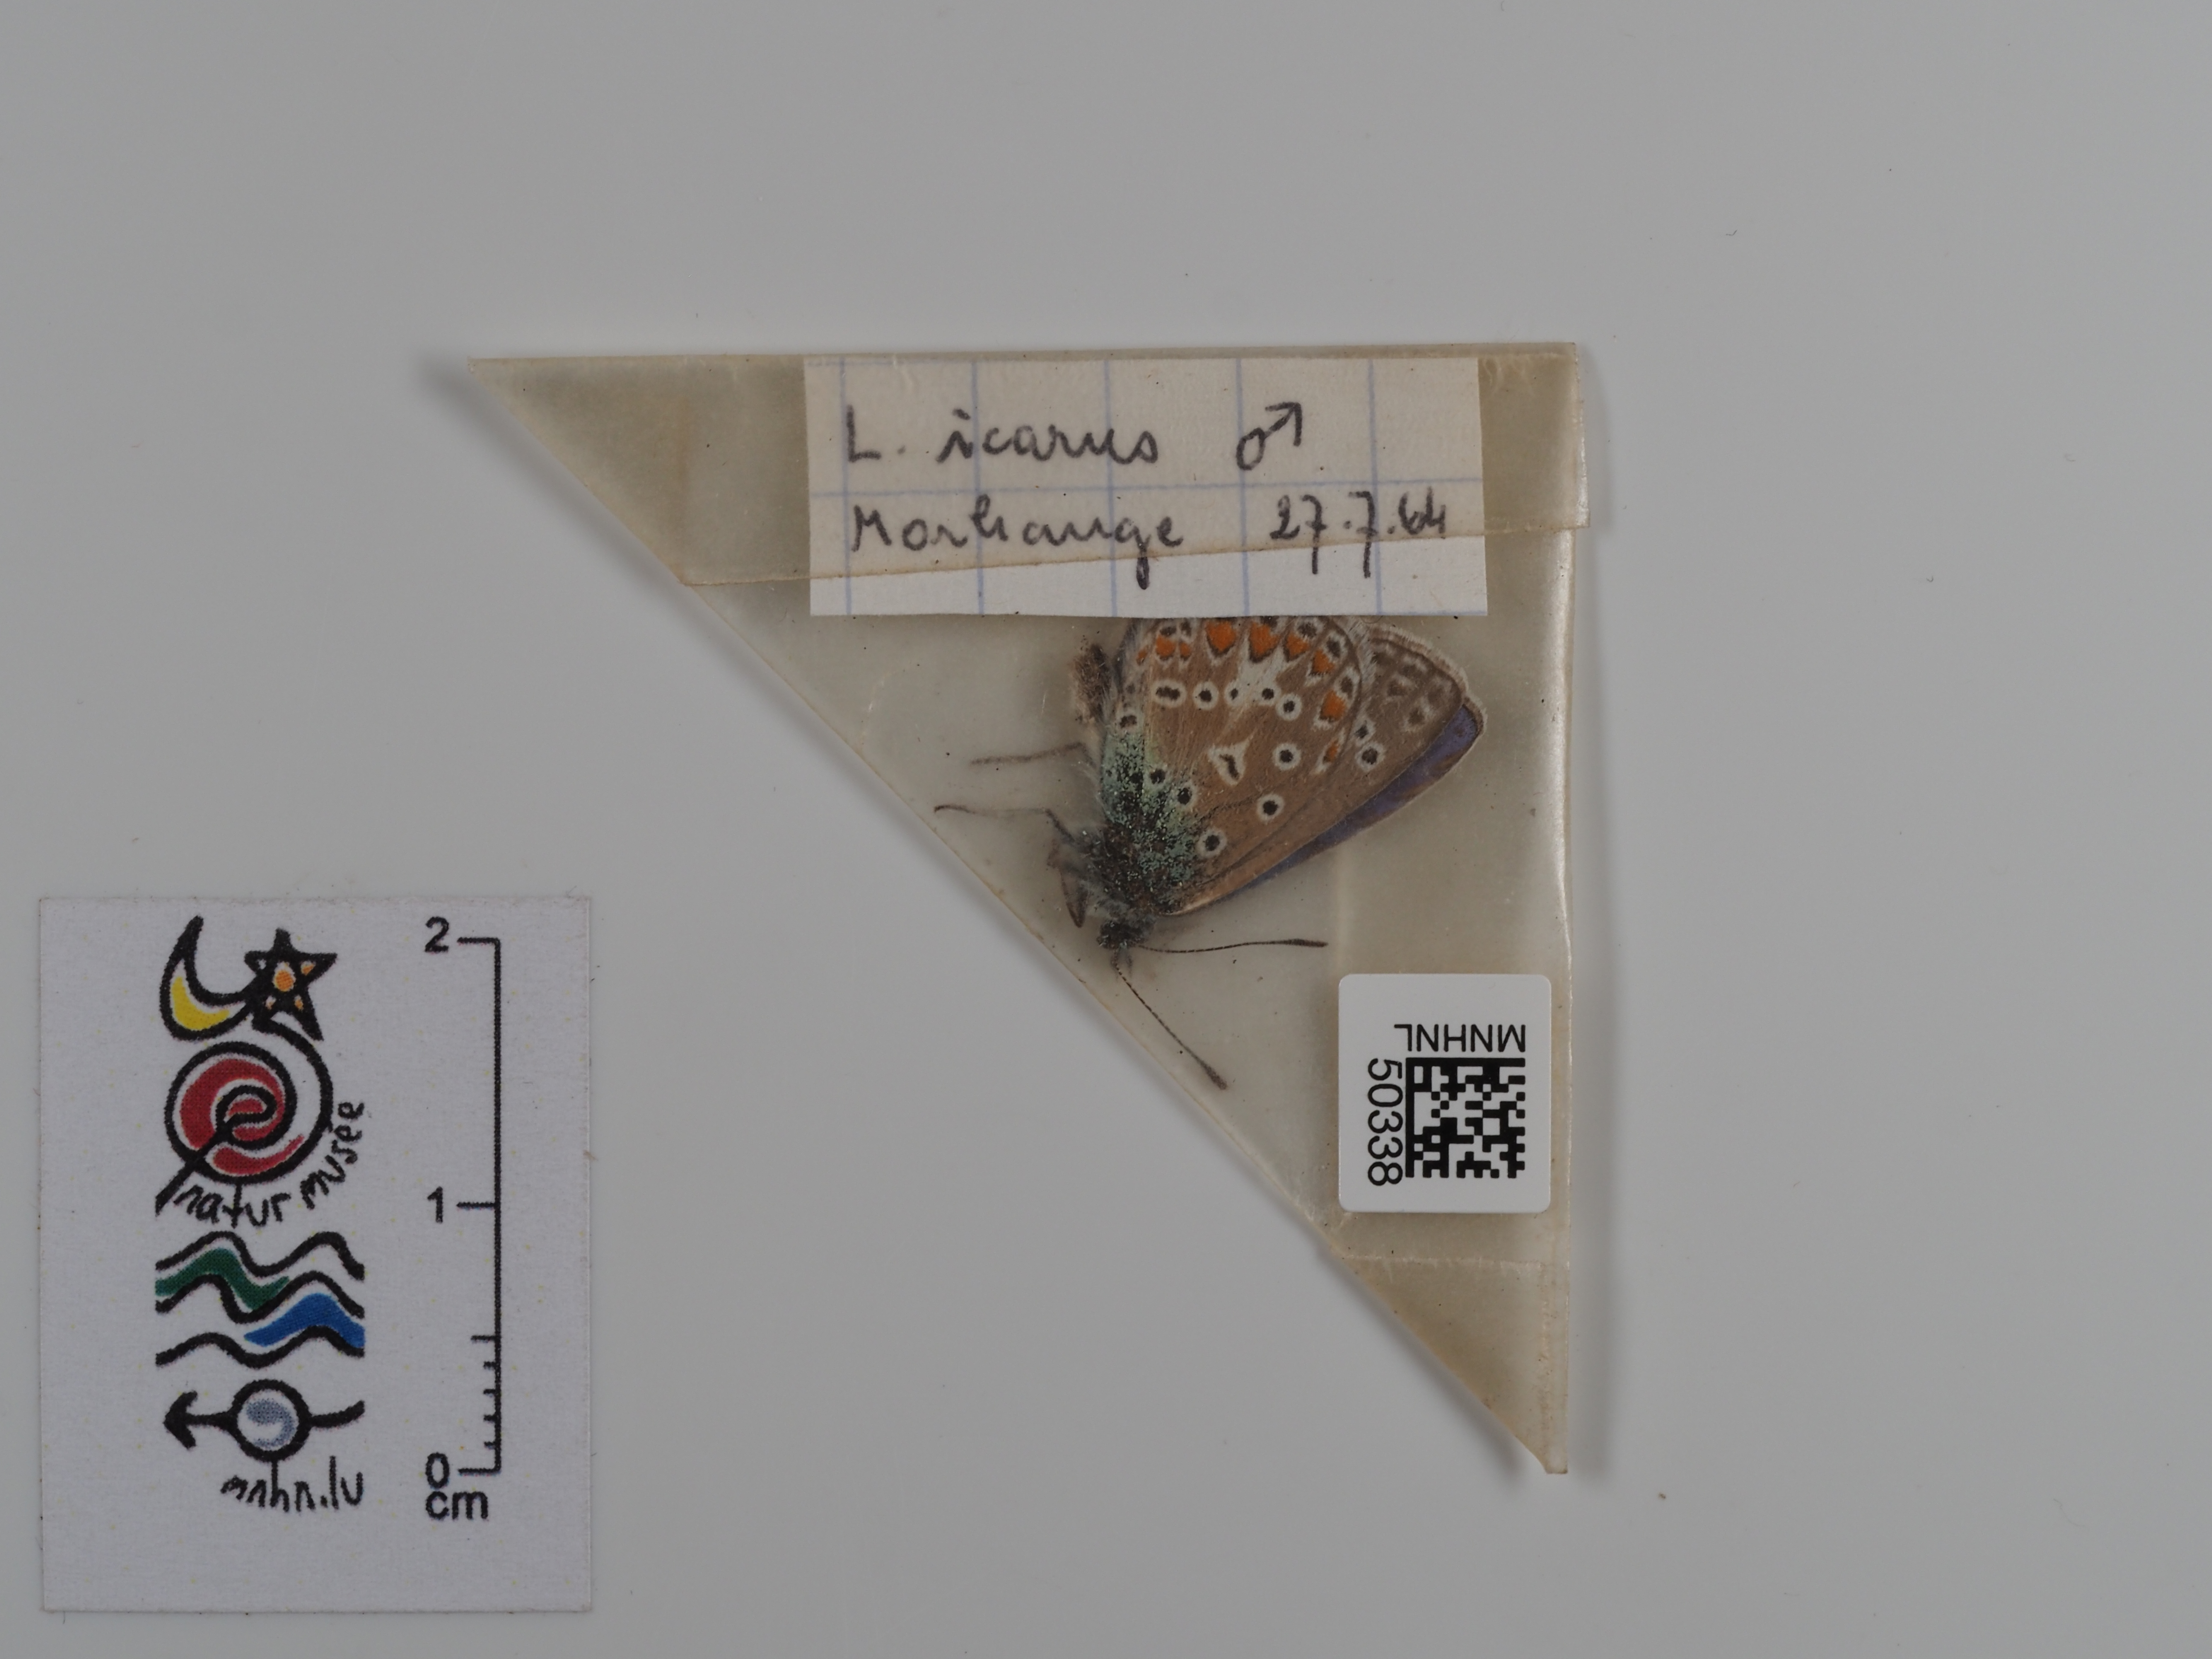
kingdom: Animalia
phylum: Arthropoda
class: Insecta
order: Lepidoptera
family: Lycaenidae
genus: Polyommatus
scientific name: Polyommatus icarus
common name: Common blue
